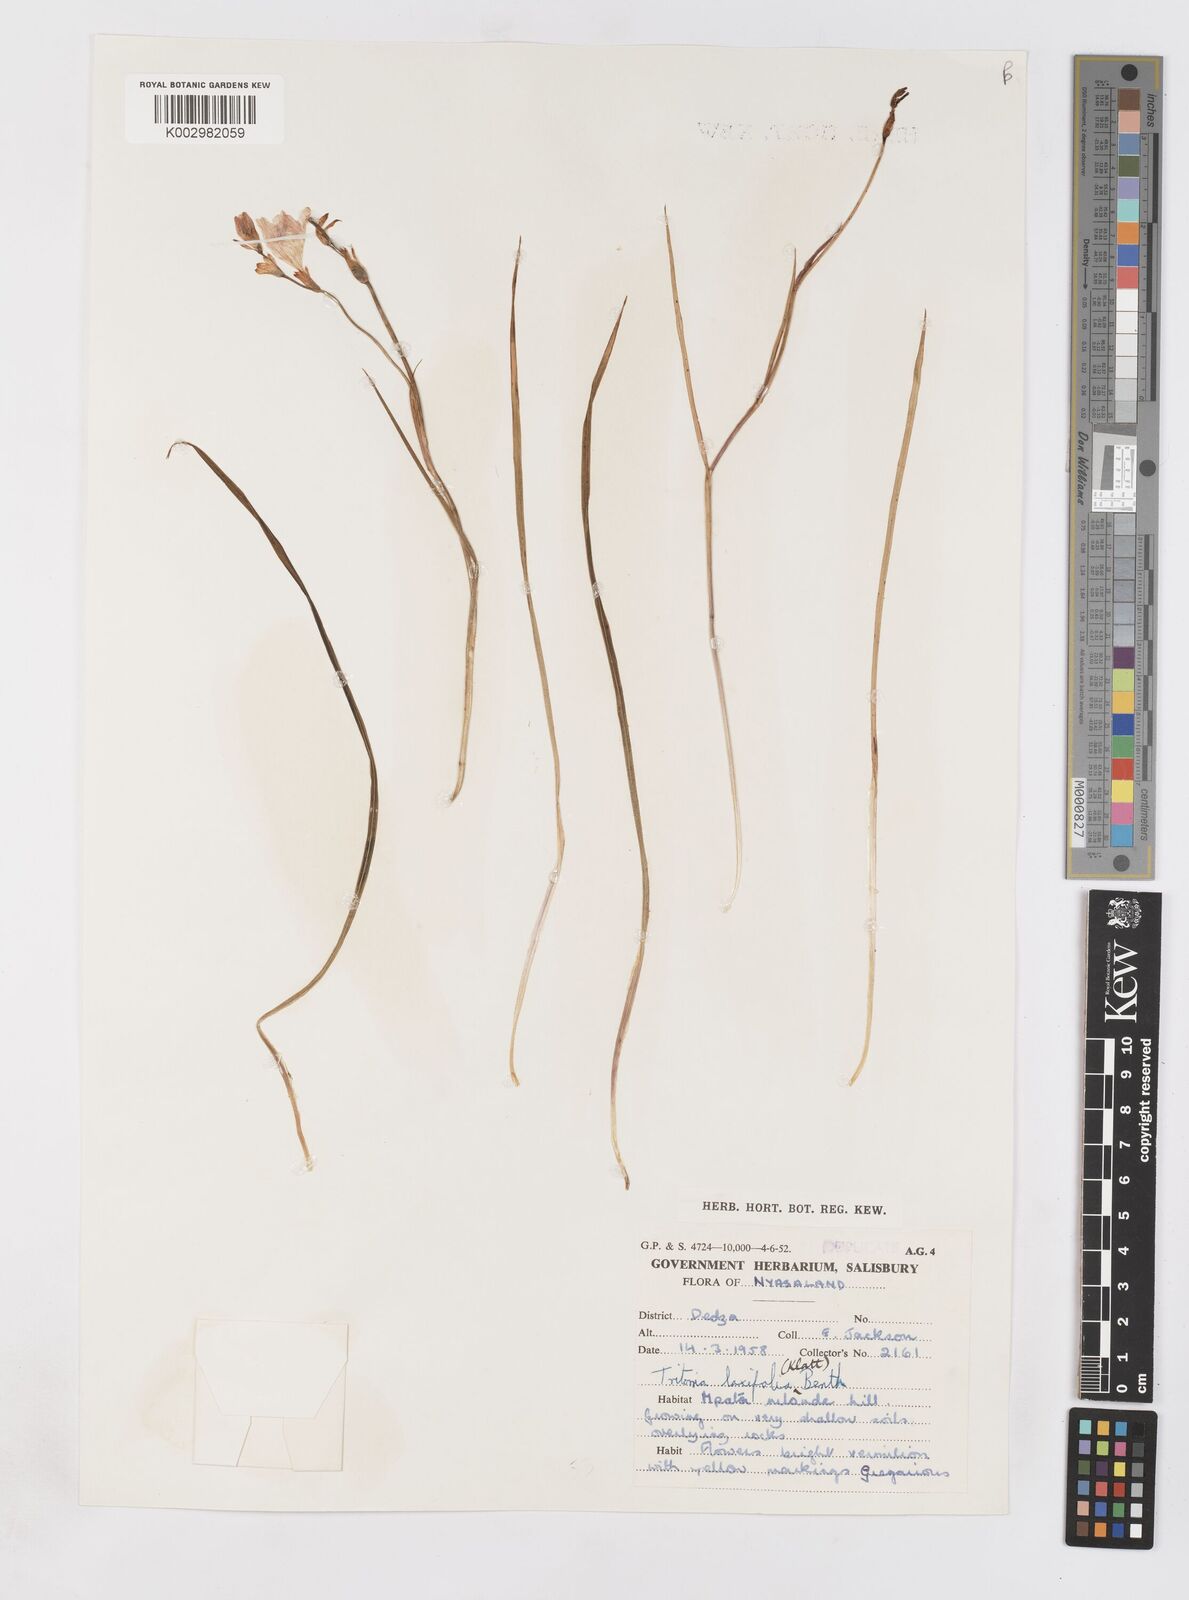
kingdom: Plantae
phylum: Tracheophyta
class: Liliopsida
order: Asparagales
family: Iridaceae
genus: Tritonia
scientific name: Tritonia laxifolia
